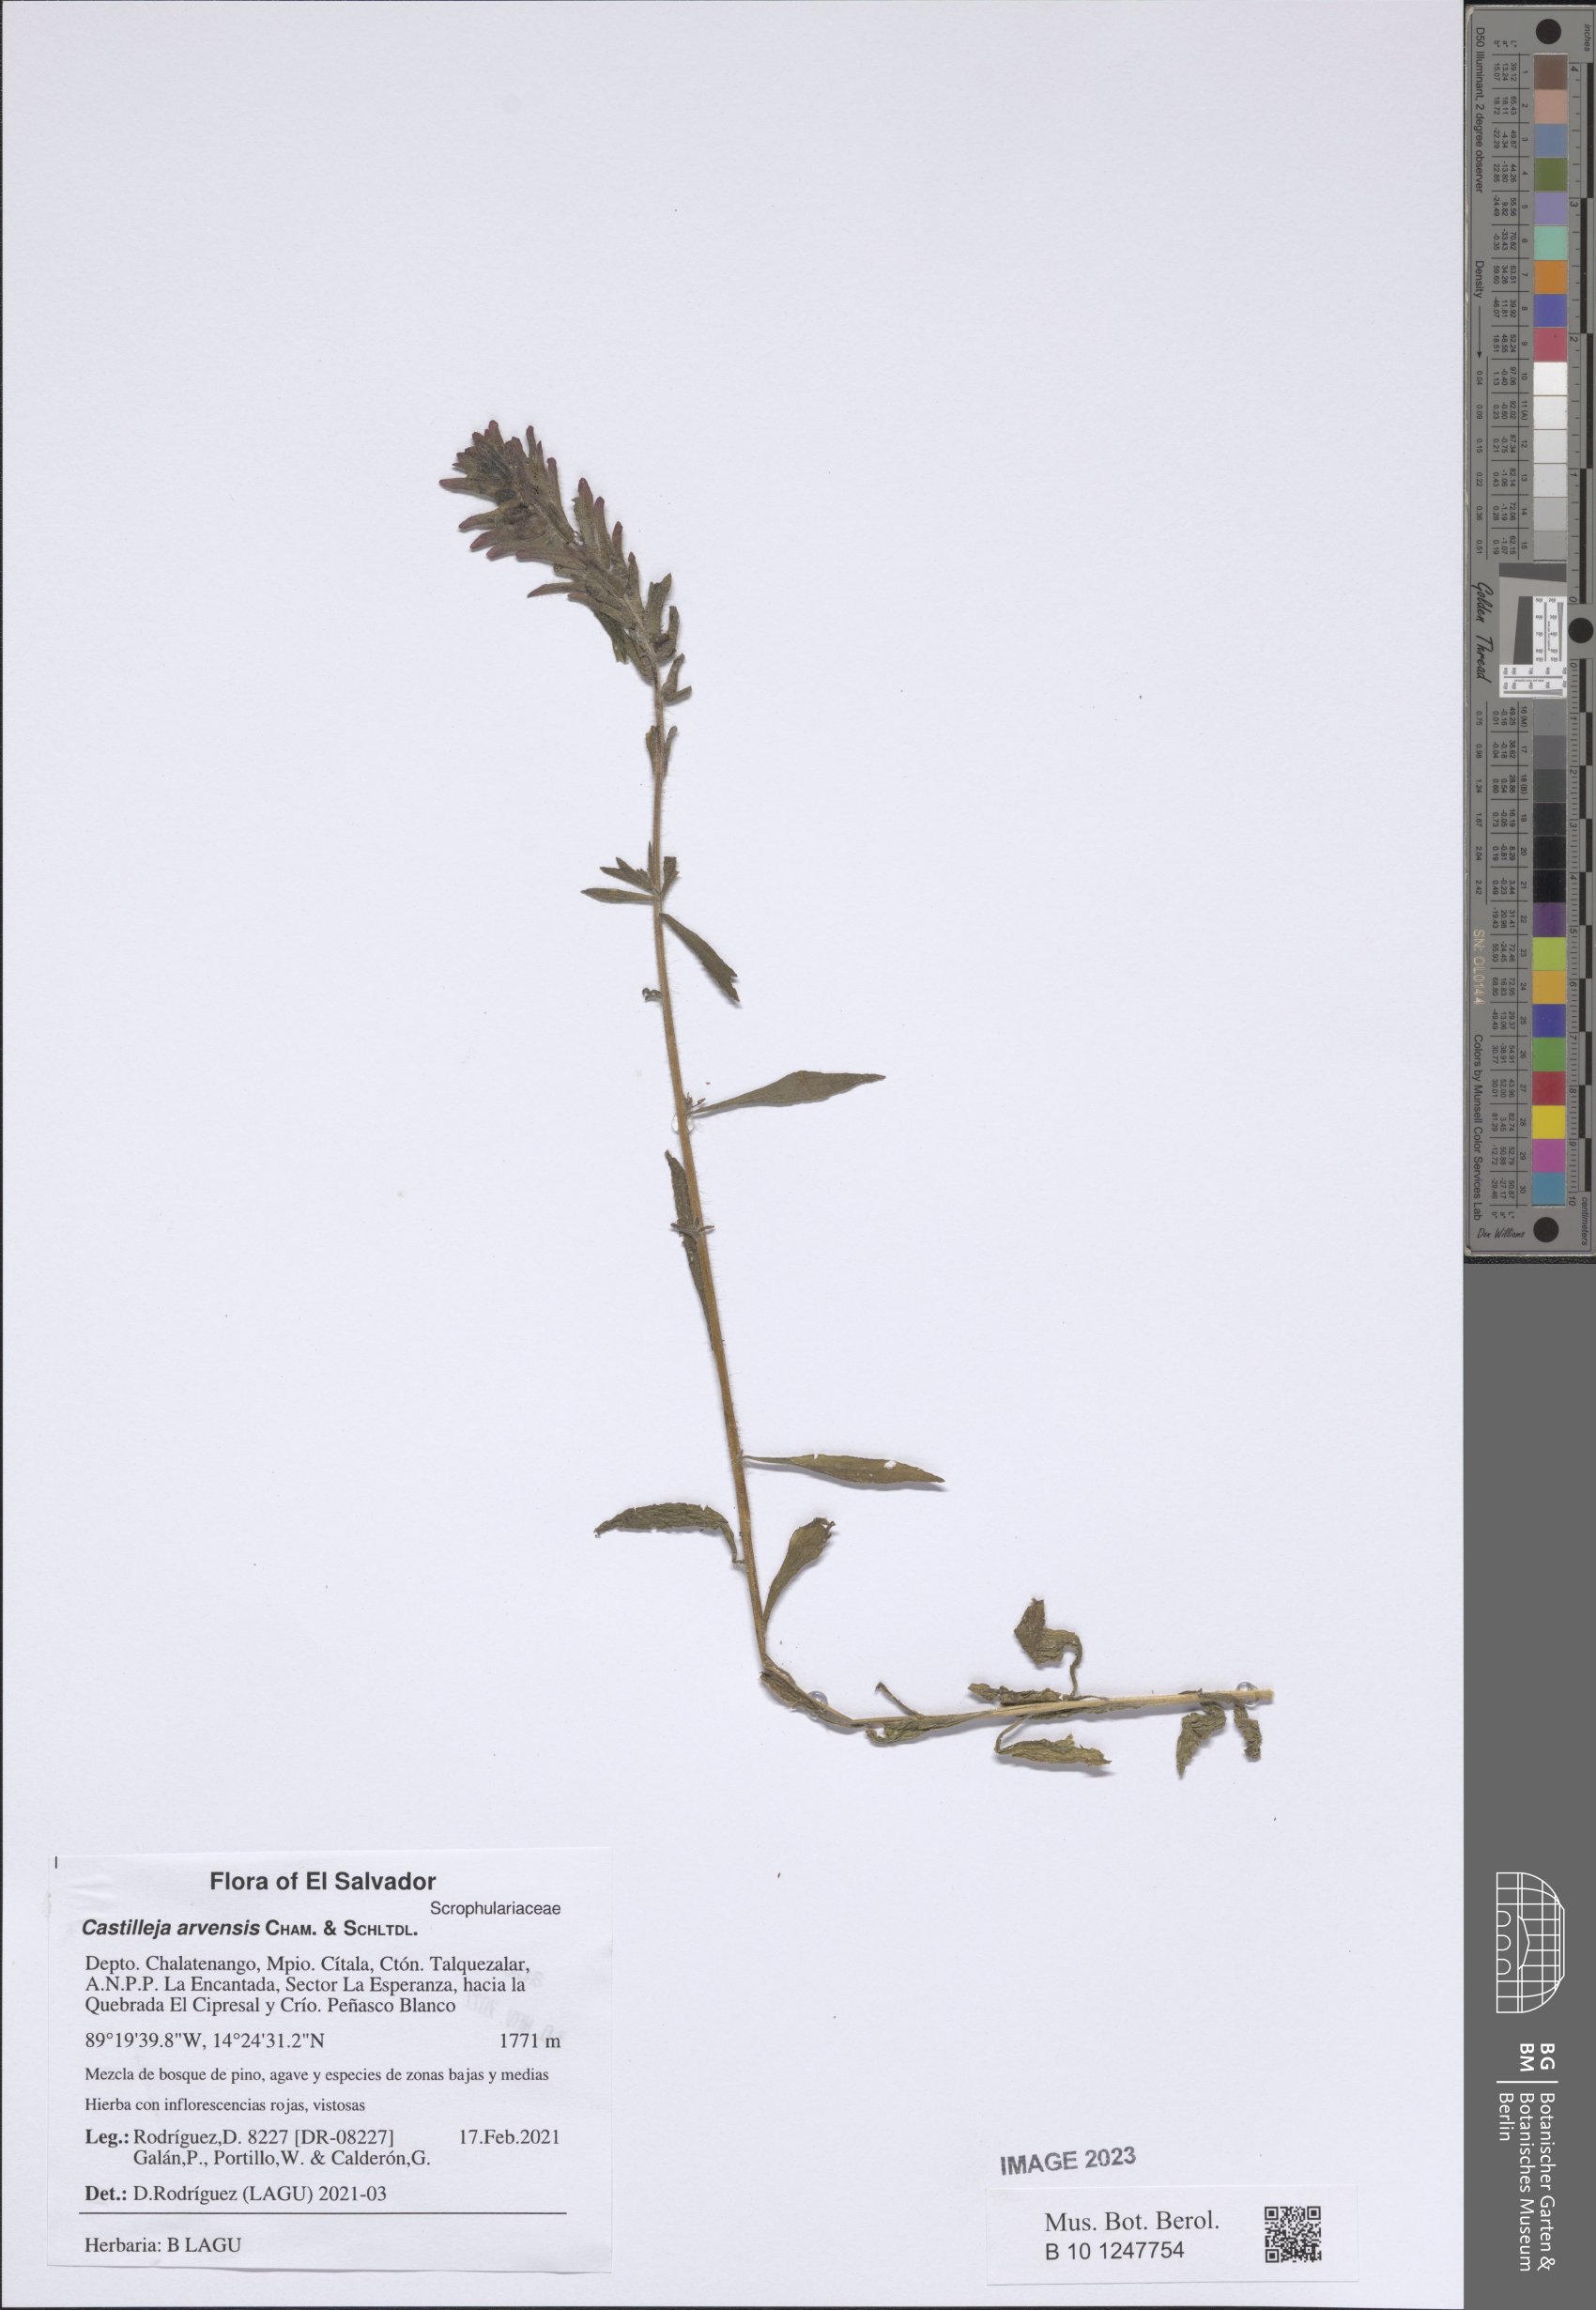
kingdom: Plantae
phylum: Tracheophyta
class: Magnoliopsida
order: Lamiales
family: Orobanchaceae
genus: Castilleja
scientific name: Castilleja arvensis
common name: Indian paintbrush
